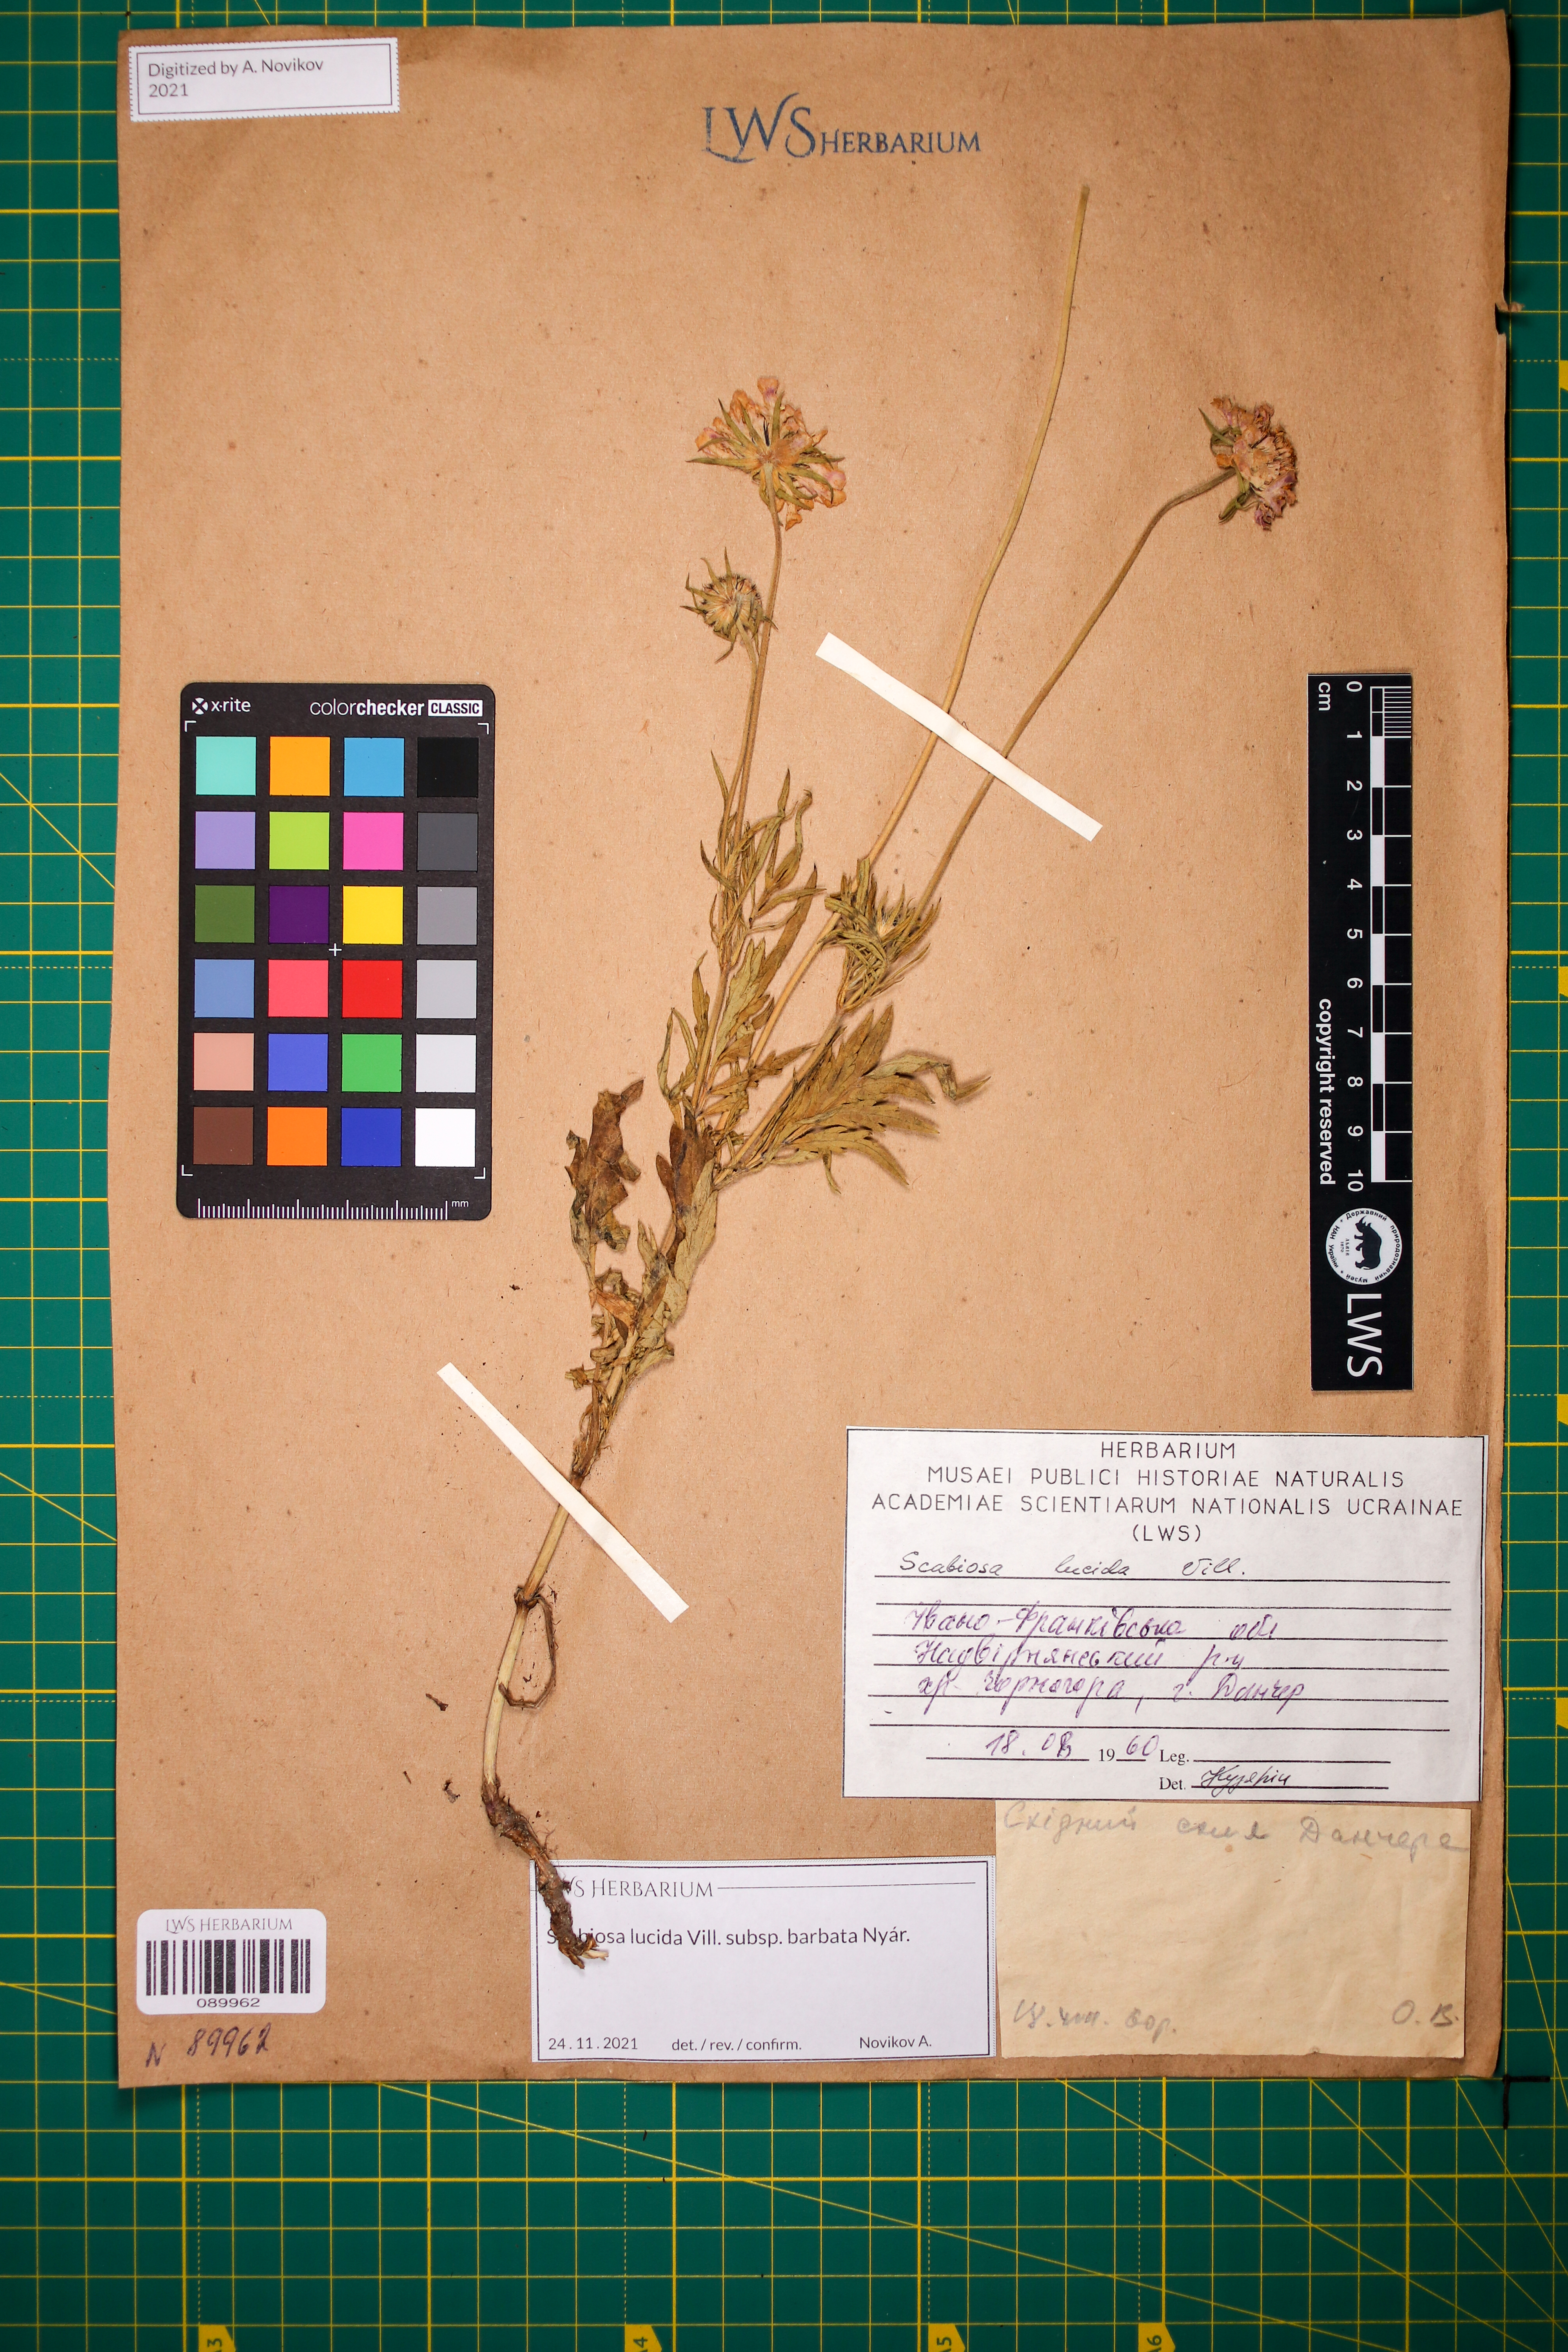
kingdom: Plantae
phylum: Tracheophyta
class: Magnoliopsida
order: Dipsacales
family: Caprifoliaceae
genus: Scabiosa
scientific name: Scabiosa lucida
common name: Shining scabious
